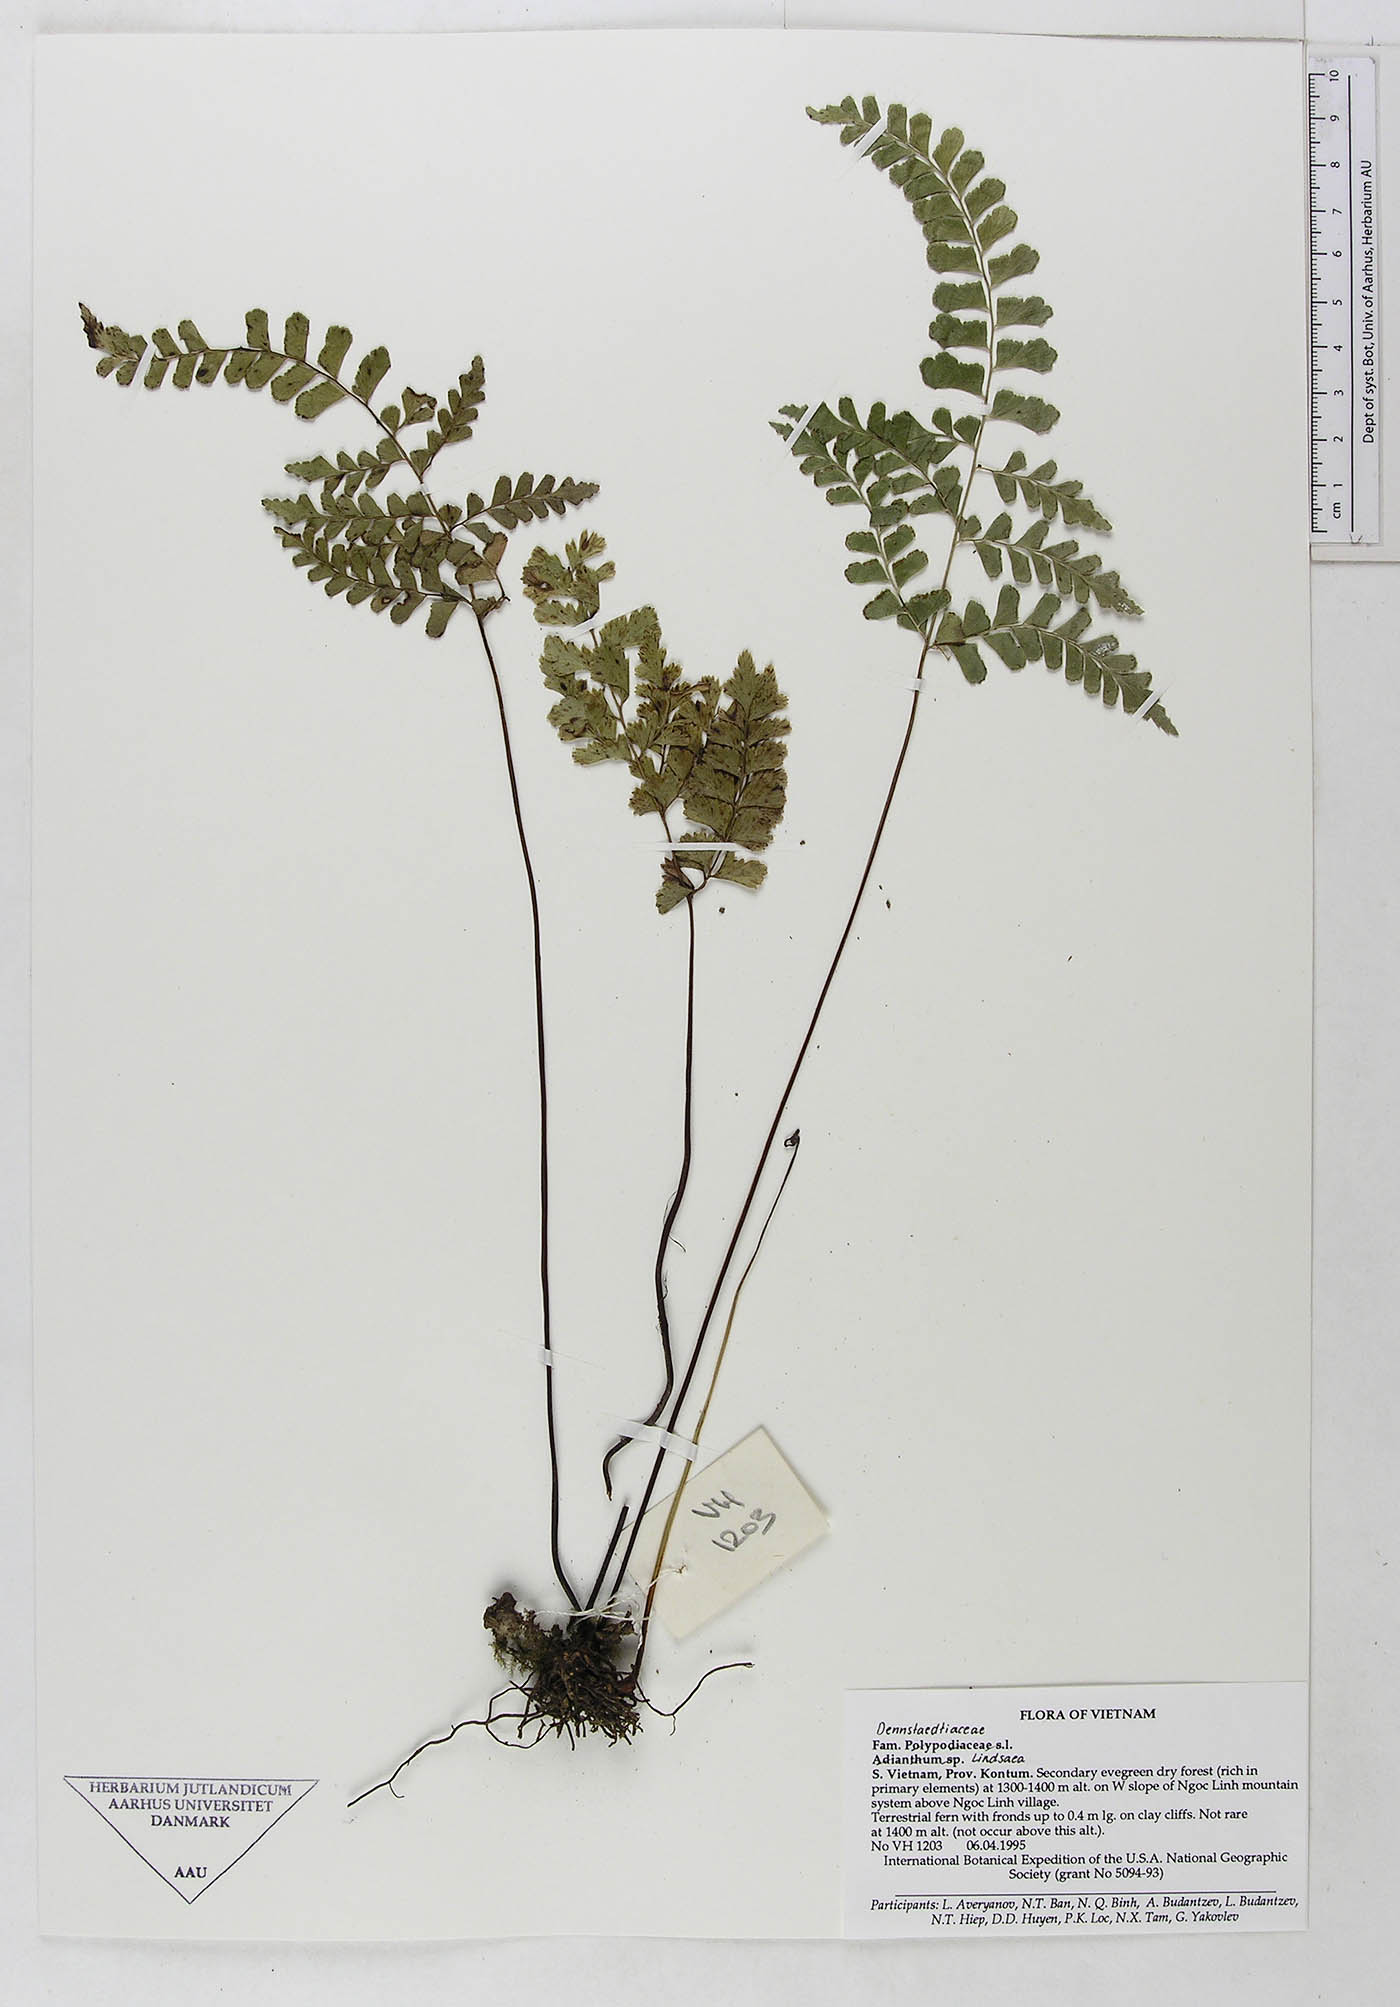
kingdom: Plantae
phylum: Tracheophyta
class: Polypodiopsida
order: Polypodiales
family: Dennstaedtiaceae
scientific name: Dennstaedtiaceae
